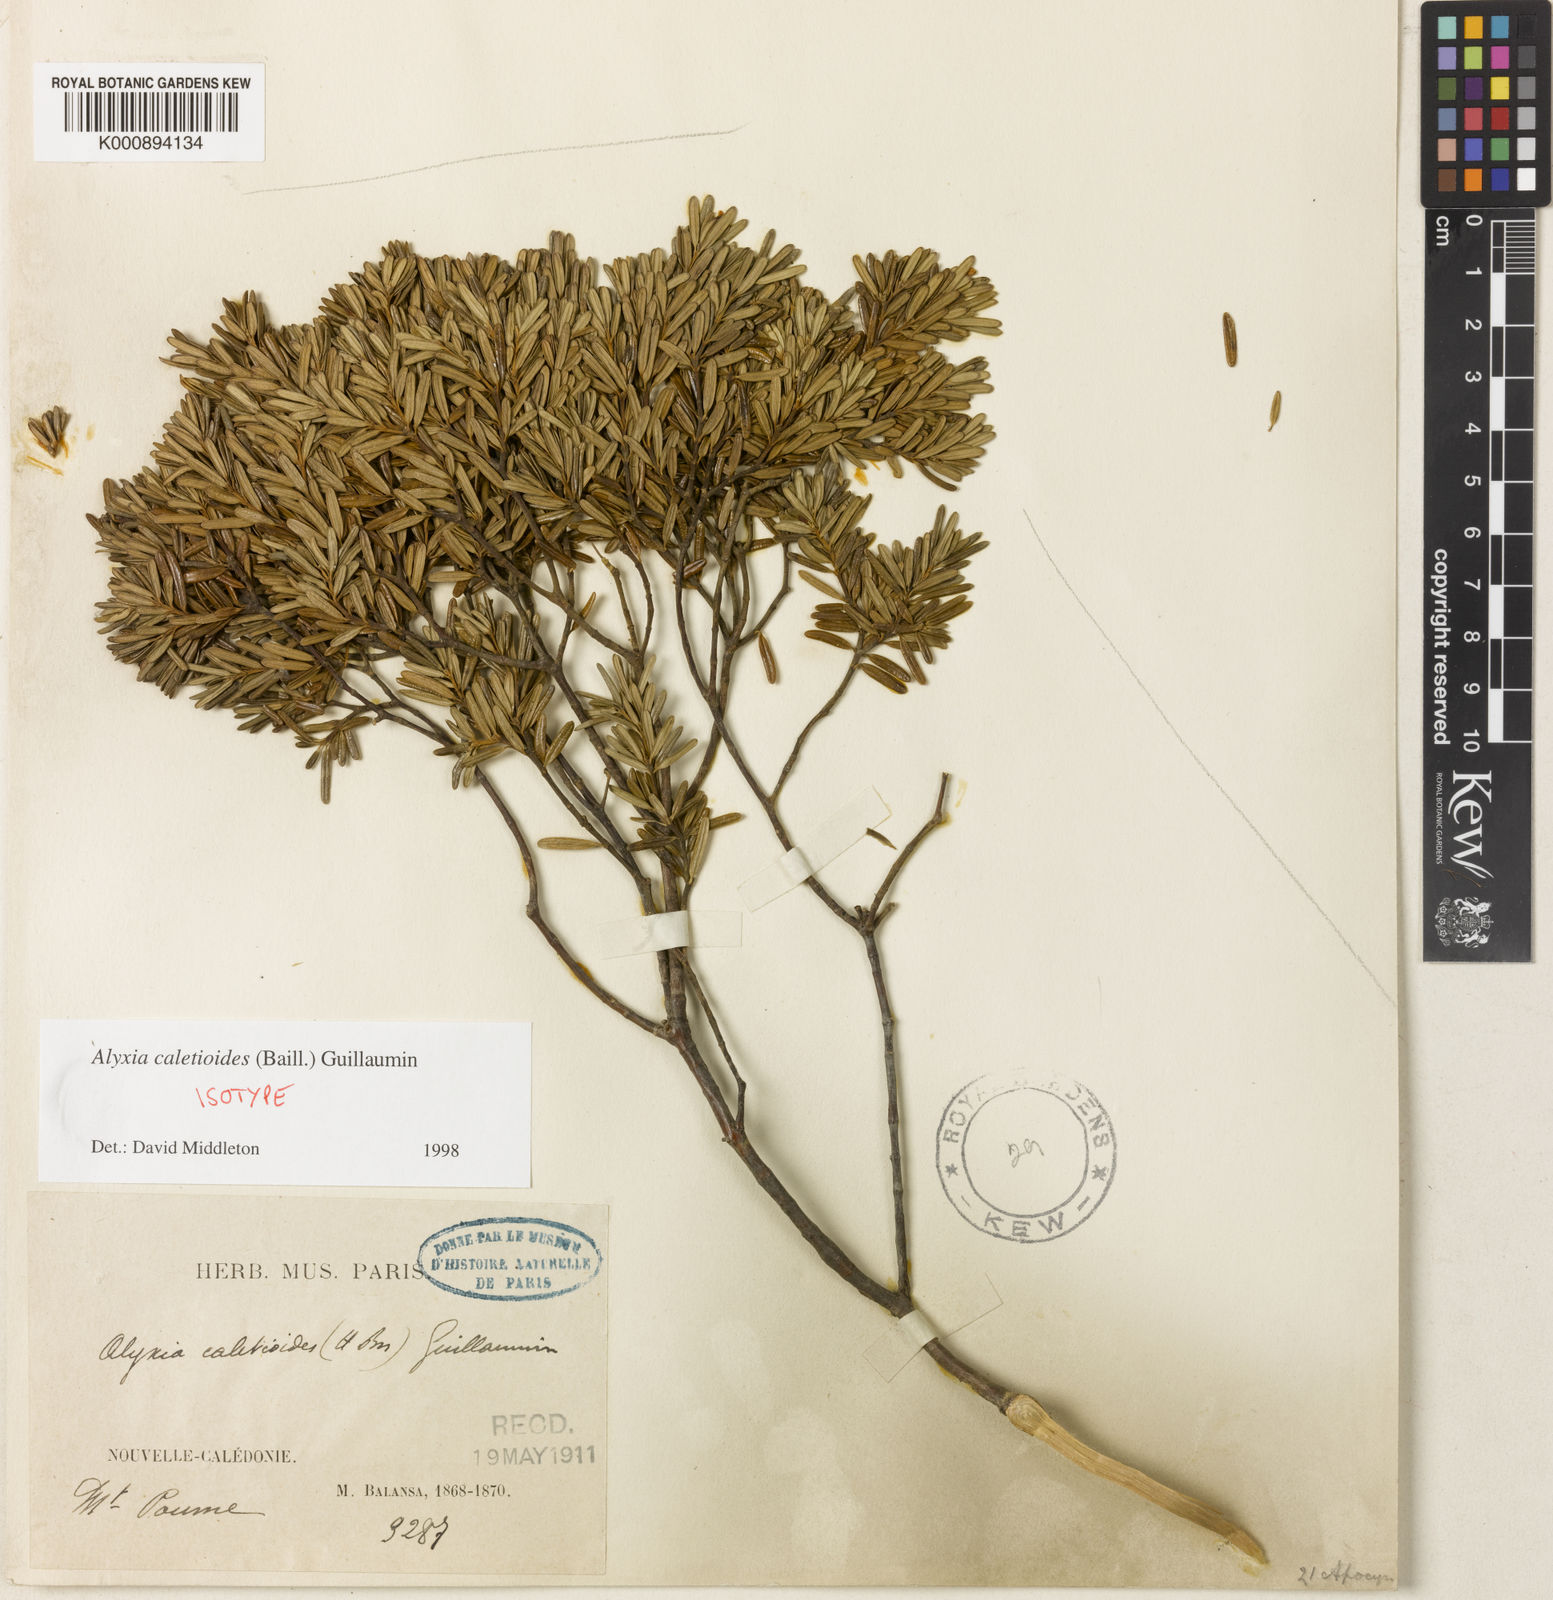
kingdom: Plantae
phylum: Tracheophyta
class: Magnoliopsida
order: Gentianales
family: Apocynaceae
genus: Alyxia
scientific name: Alyxia caletioides
